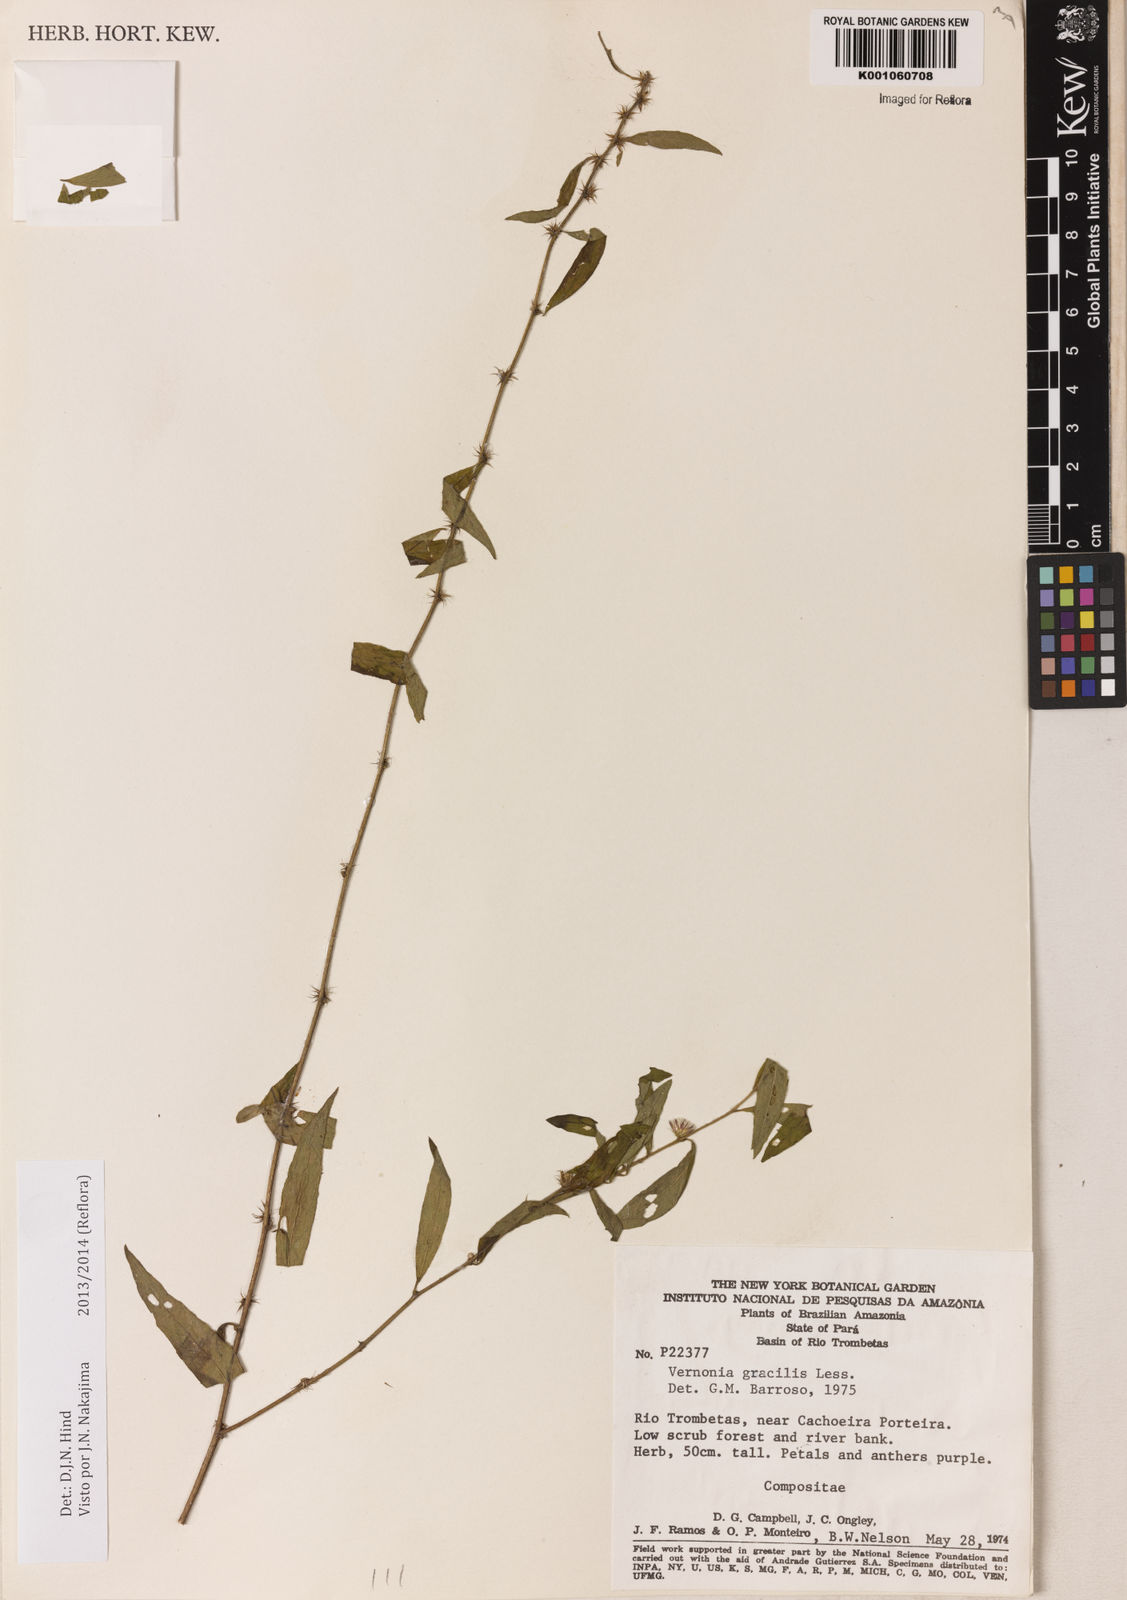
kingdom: Plantae
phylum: Tracheophyta
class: Magnoliopsida
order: Asterales
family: Asteraceae
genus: Lepidaploa
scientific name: Lepidaploa gracilis
